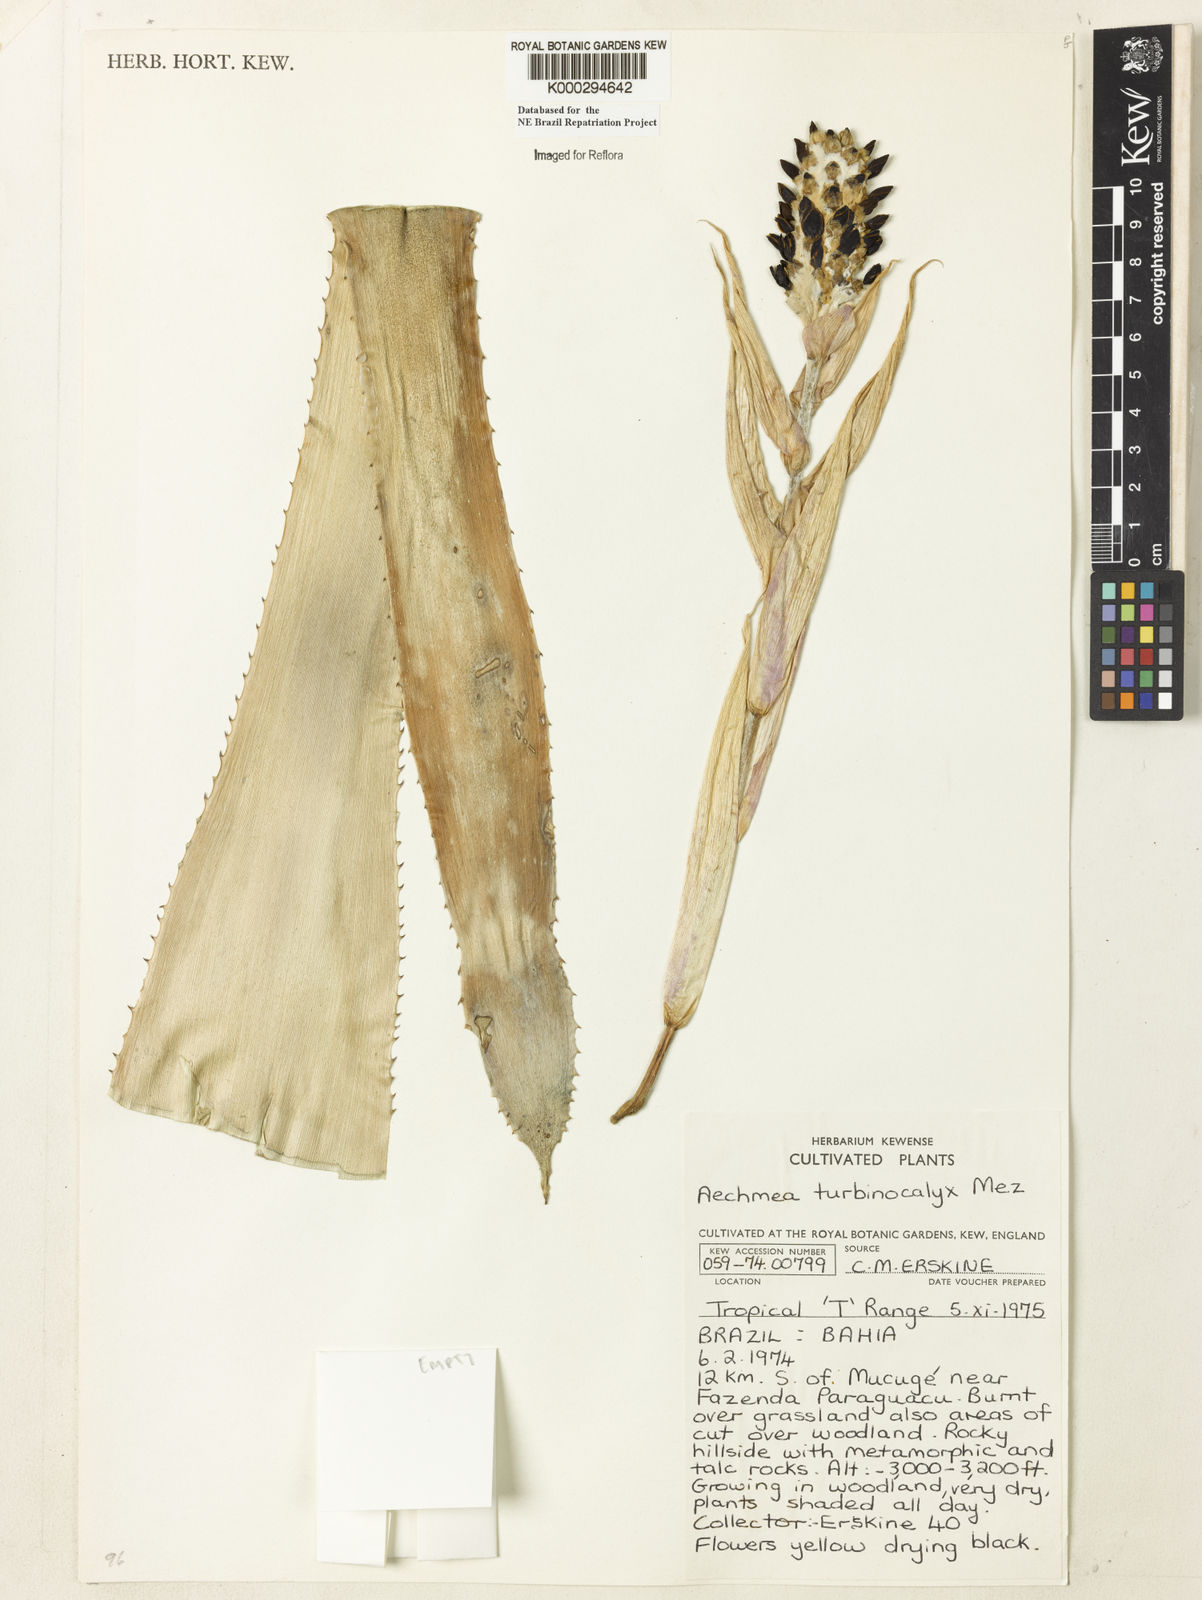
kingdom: Plantae
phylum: Tracheophyta
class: Liliopsida
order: Poales
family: Bromeliaceae
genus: Wittmackia
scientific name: Wittmackia turbinocalyx
